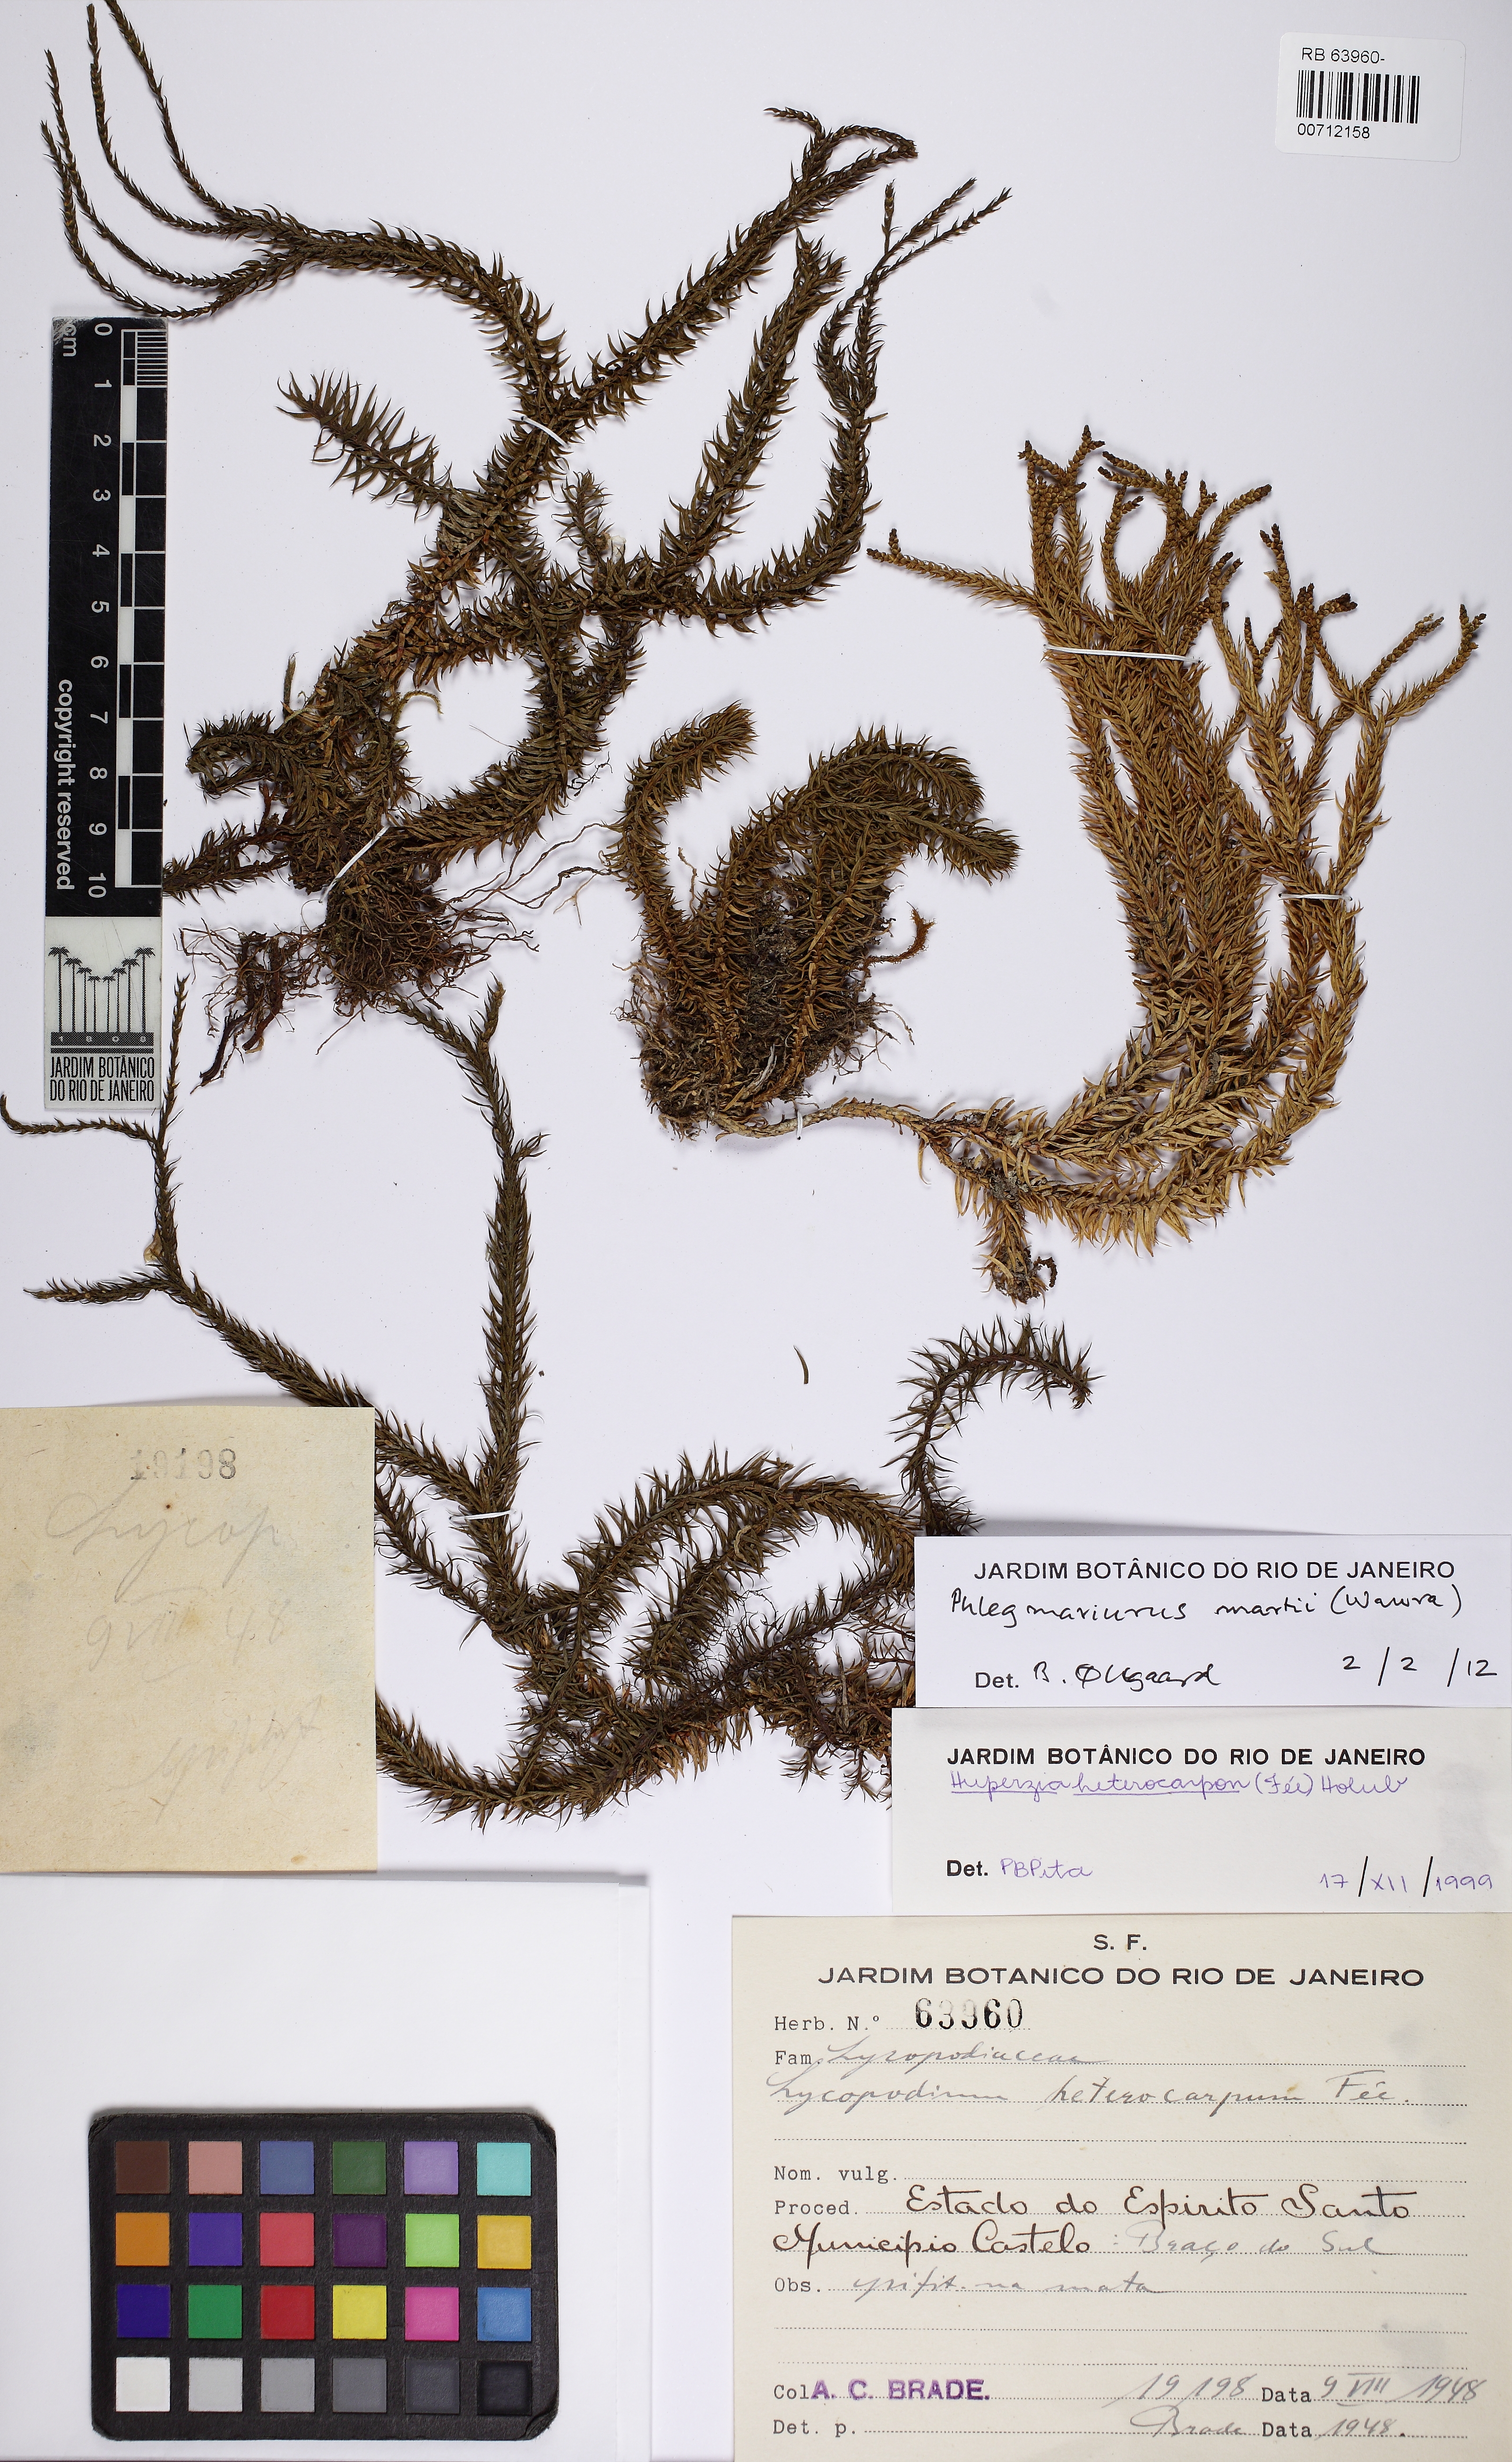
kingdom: Plantae
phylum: Tracheophyta
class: Lycopodiopsida
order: Lycopodiales
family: Lycopodiaceae
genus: Phlegmariurus
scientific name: Phlegmariurus martii
